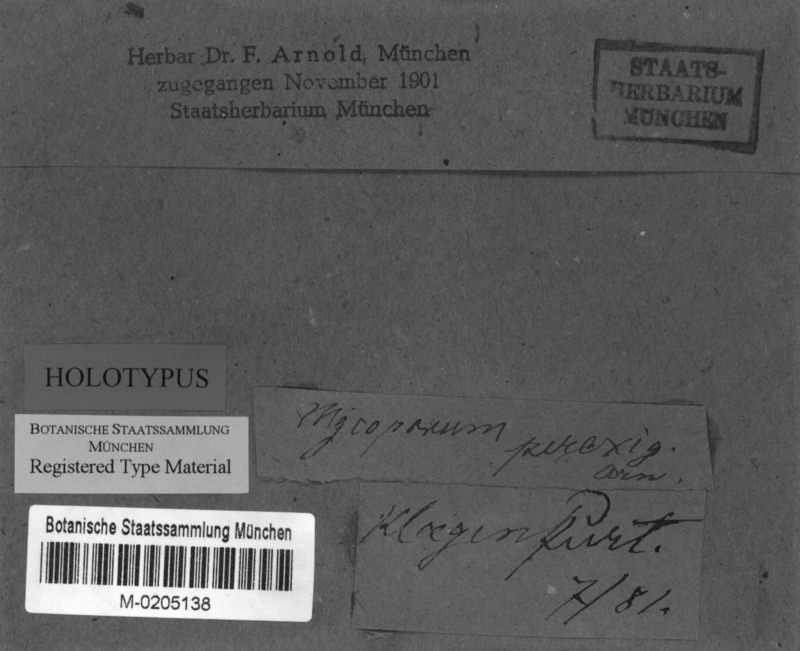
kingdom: Fungi
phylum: Ascomycota
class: Arthoniomycetes
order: Arthoniales
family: Arthoniaceae
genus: Dermatina
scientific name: Dermatina perexigua
